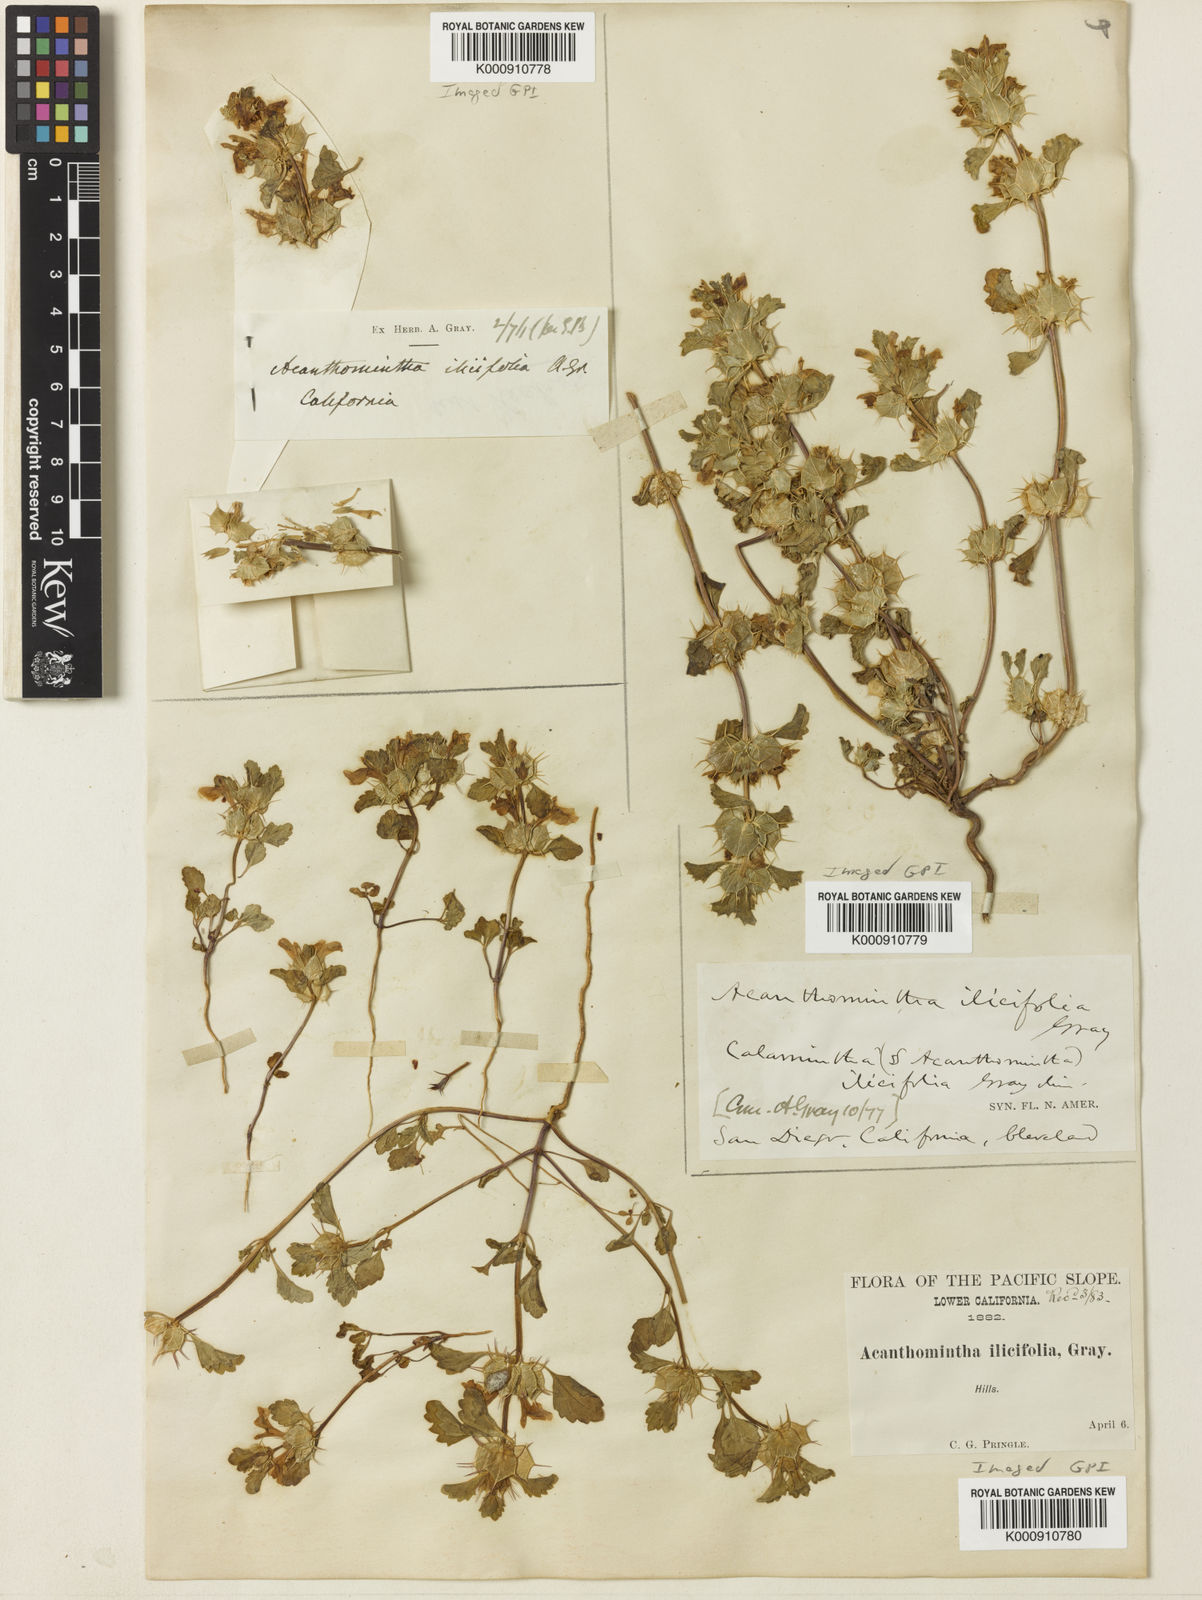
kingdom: Plantae
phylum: Tracheophyta
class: Magnoliopsida
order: Lamiales
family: Lamiaceae
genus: Acanthomintha
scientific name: Acanthomintha ilicifolia
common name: San diego thorn-mint
